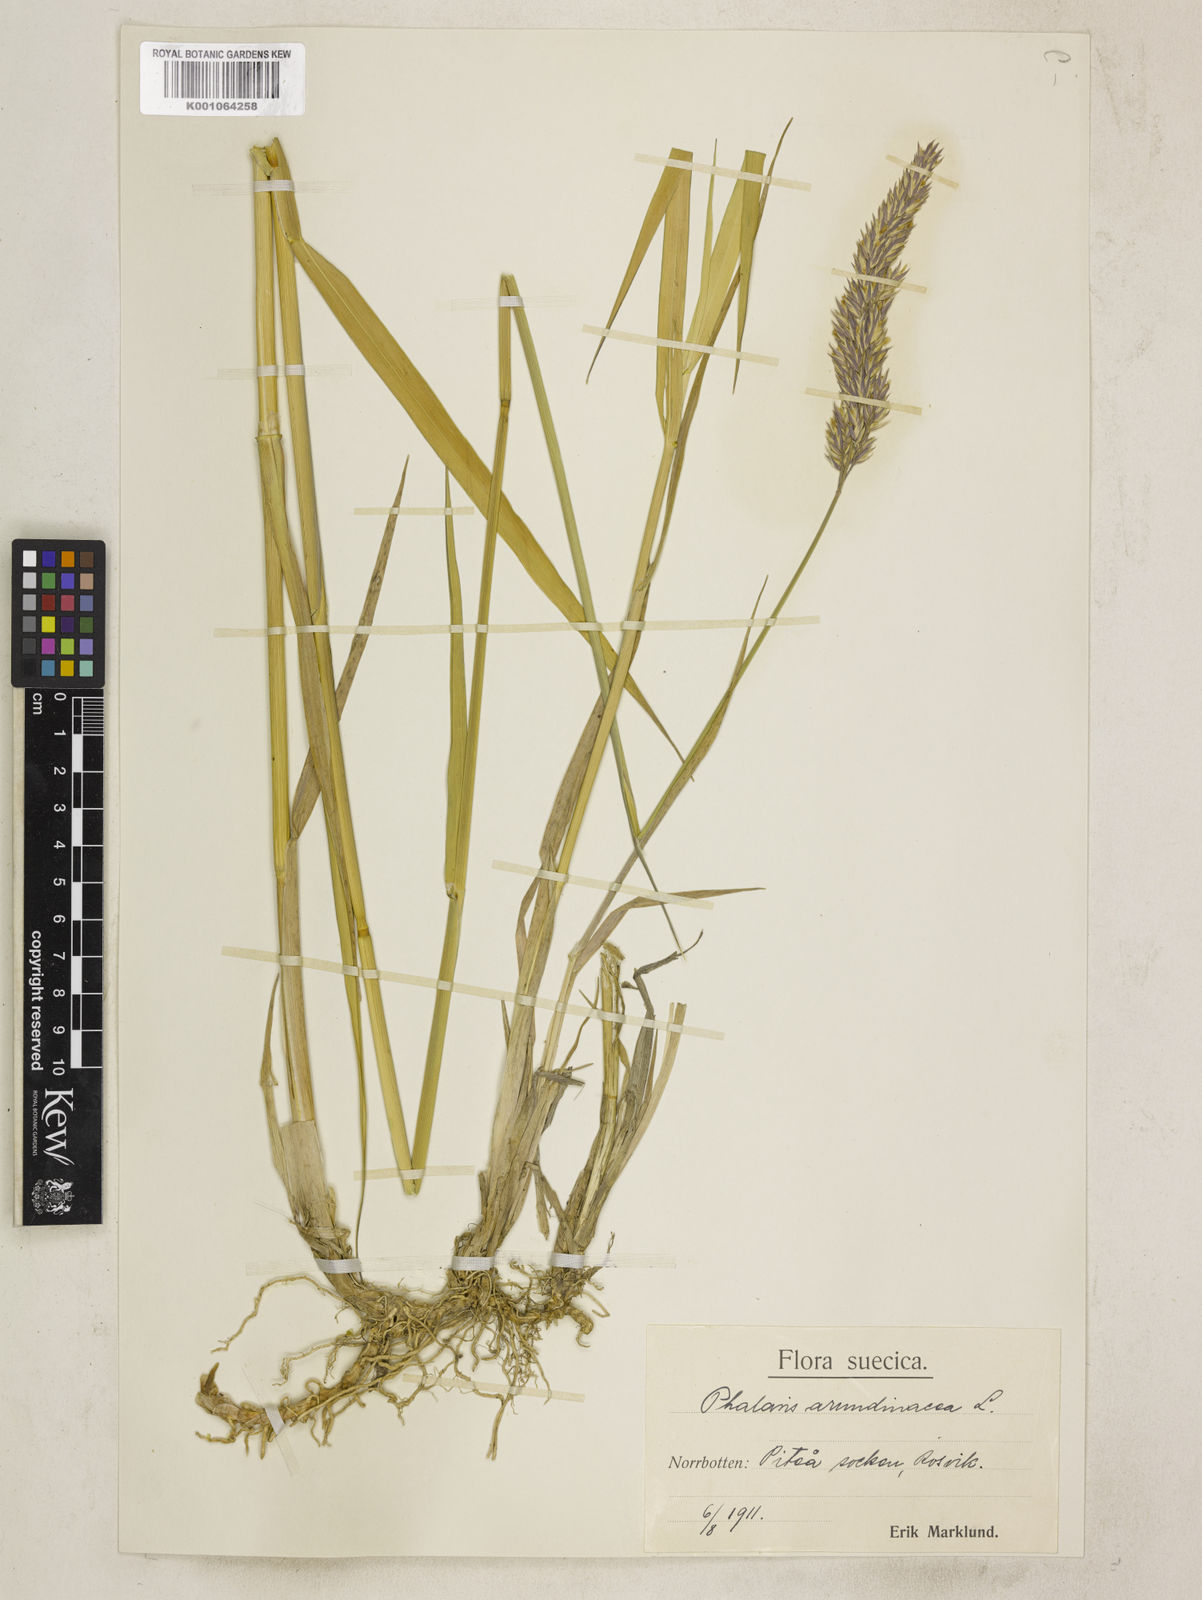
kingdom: Plantae
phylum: Tracheophyta
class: Liliopsida
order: Poales
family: Poaceae
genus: Phalaris
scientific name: Phalaris arundinacea
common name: Reed canary-grass
